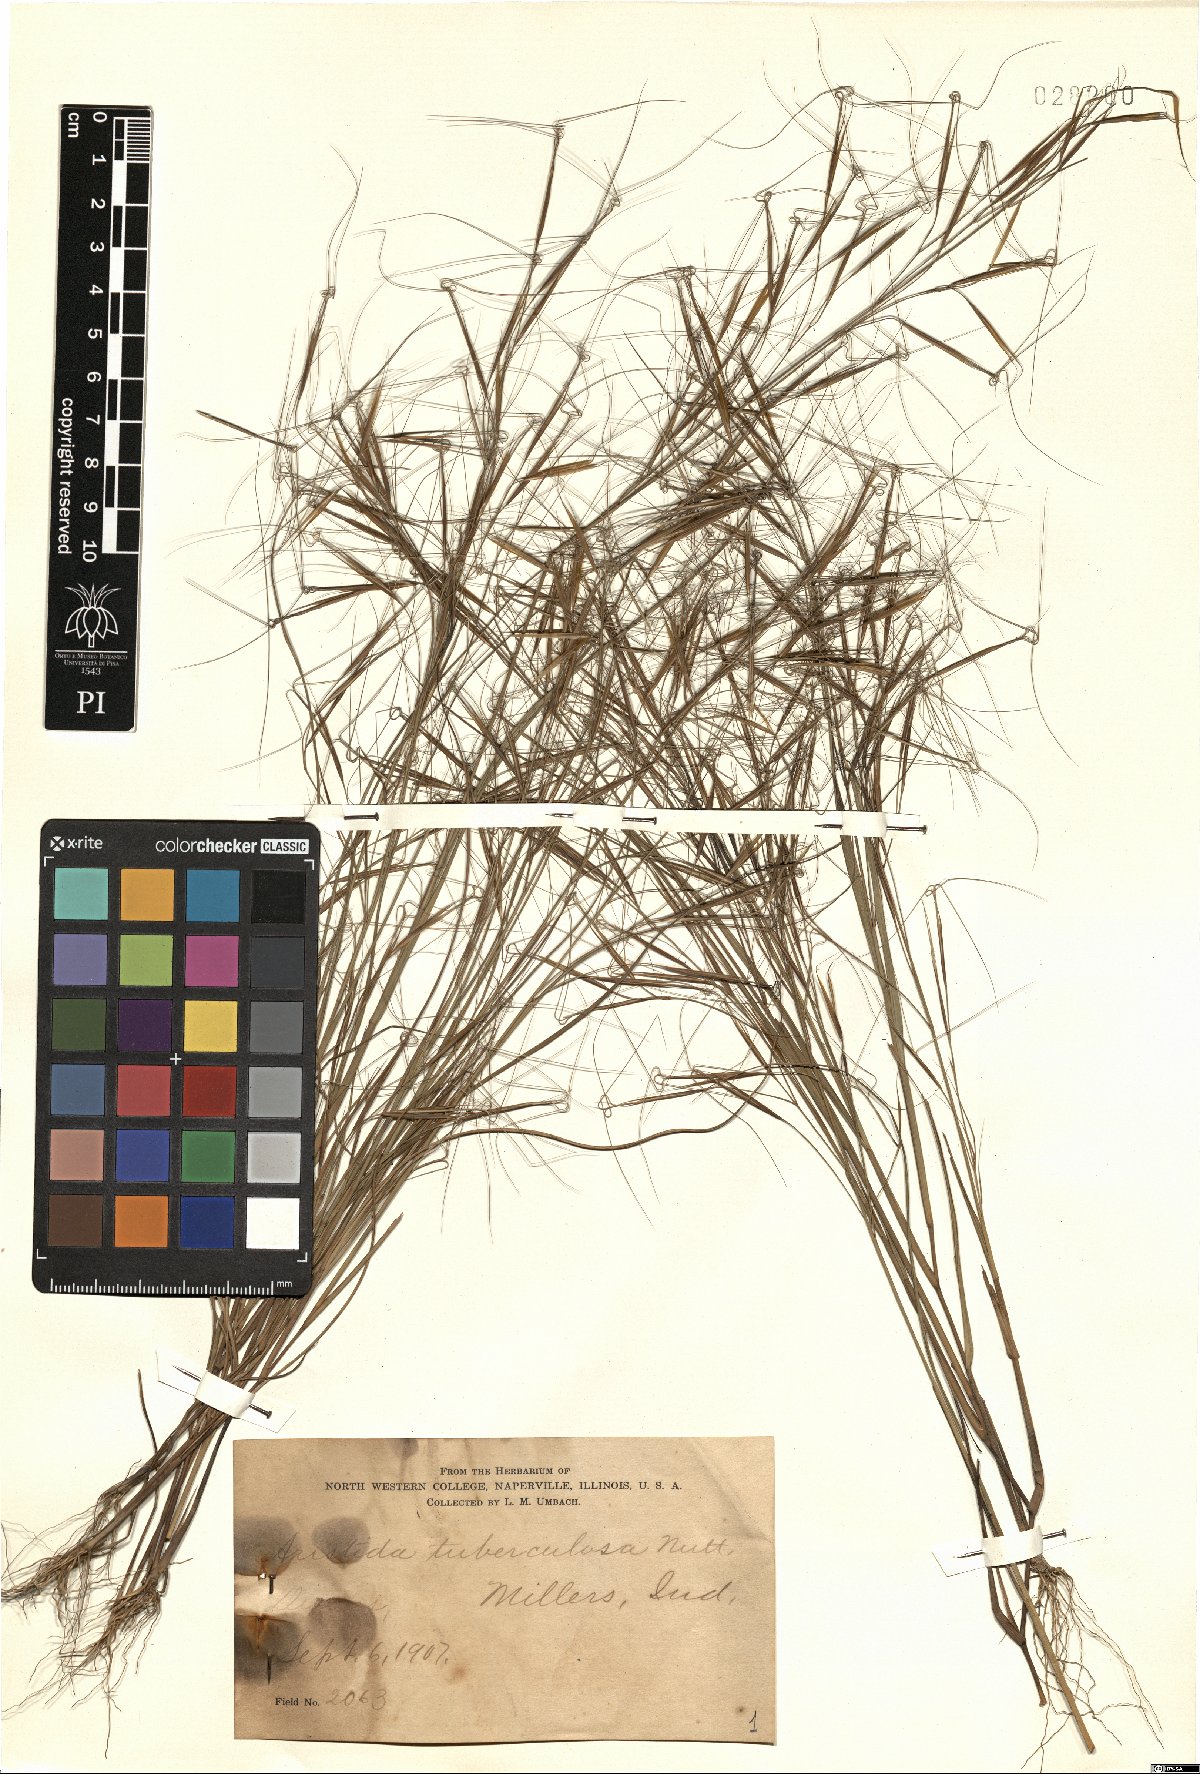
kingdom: Plantae
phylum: Tracheophyta
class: Liliopsida
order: Poales
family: Poaceae
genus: Aristida
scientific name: Aristida tuberculosa
